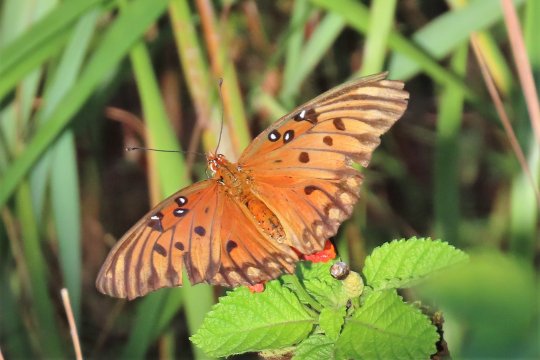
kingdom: Animalia
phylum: Arthropoda
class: Insecta
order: Lepidoptera
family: Nymphalidae
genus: Dione
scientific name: Dione vanillae
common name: Gulf Fritillary
